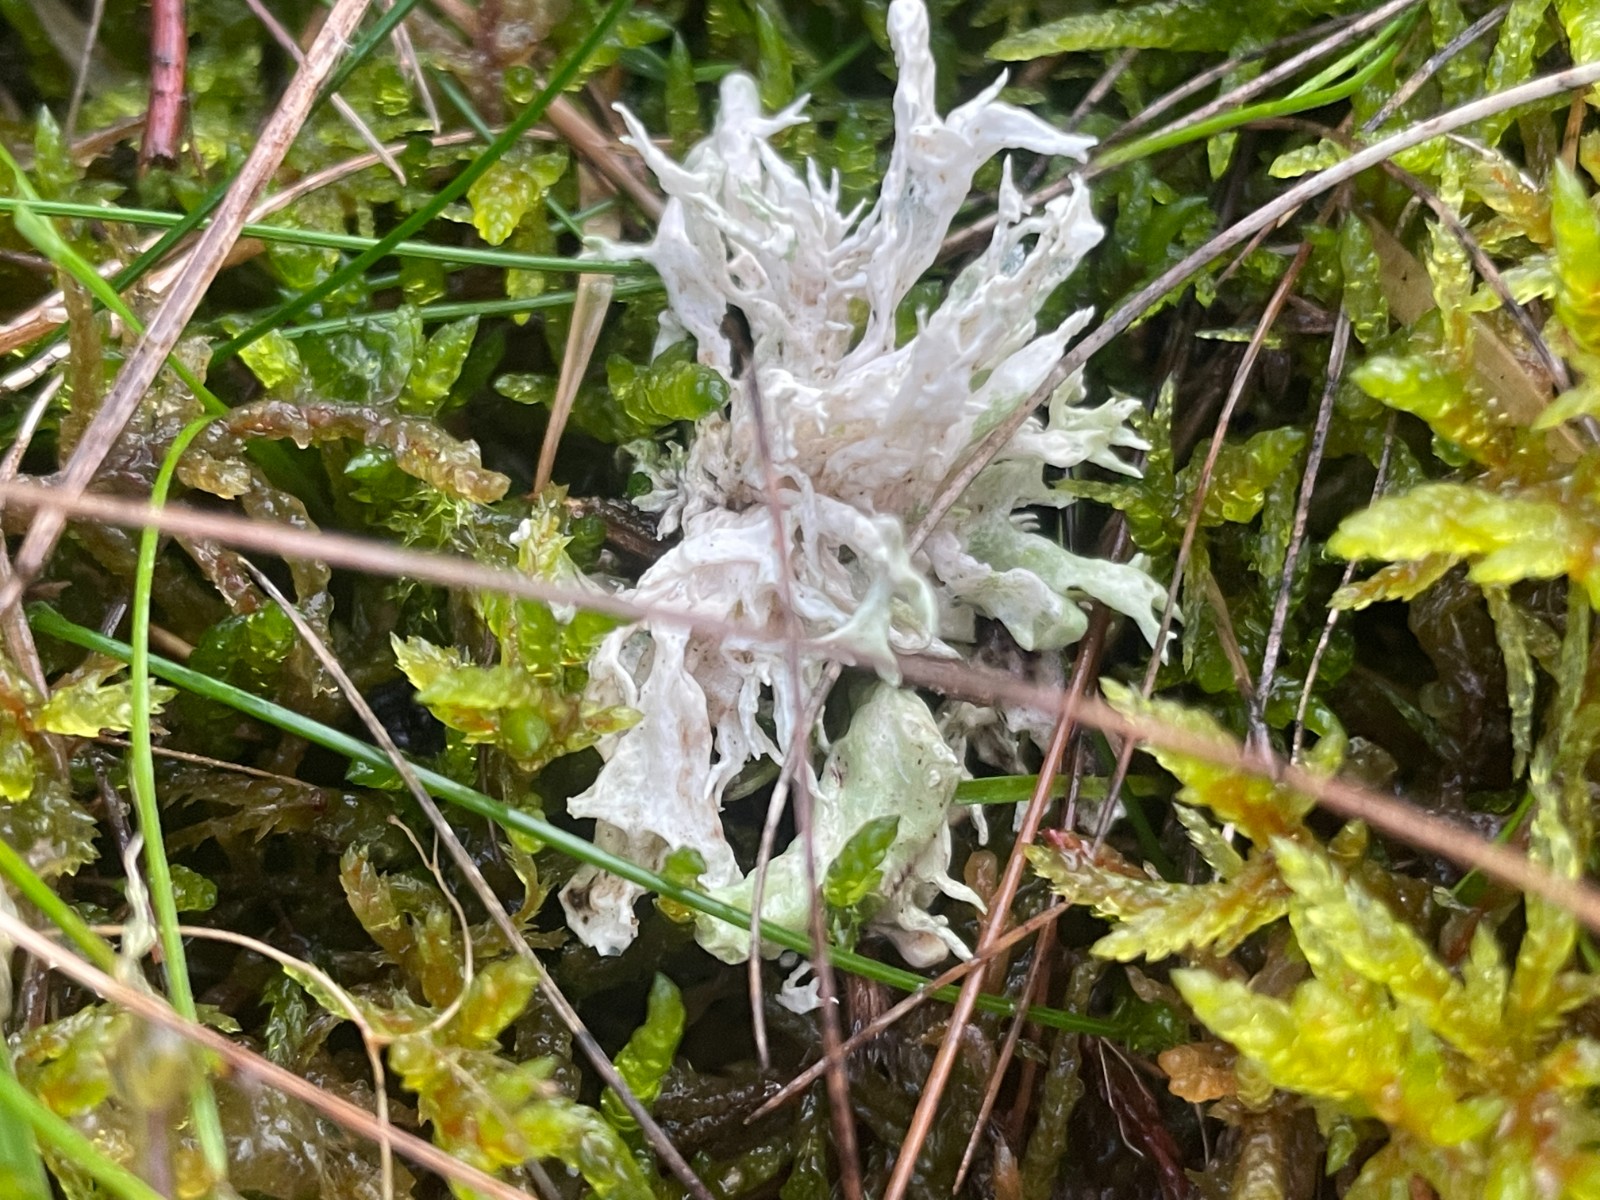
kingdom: Fungi
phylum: Ascomycota
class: Sordariomycetes
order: Hypocreales
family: Cordycipitaceae
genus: Cordyceps
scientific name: Cordyceps farinosa
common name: melet snyltekølle
